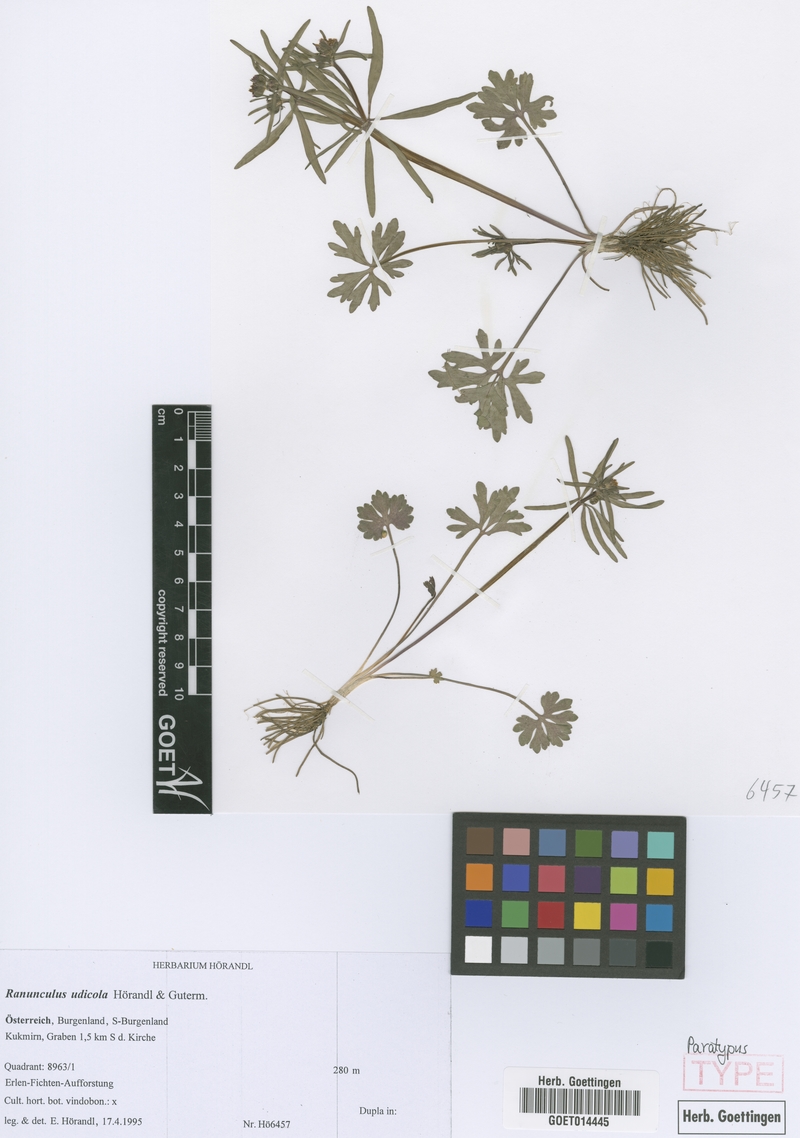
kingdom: Plantae
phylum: Tracheophyta
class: Magnoliopsida
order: Ranunculales
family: Ranunculaceae
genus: Ranunculus
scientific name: Ranunculus udicola
